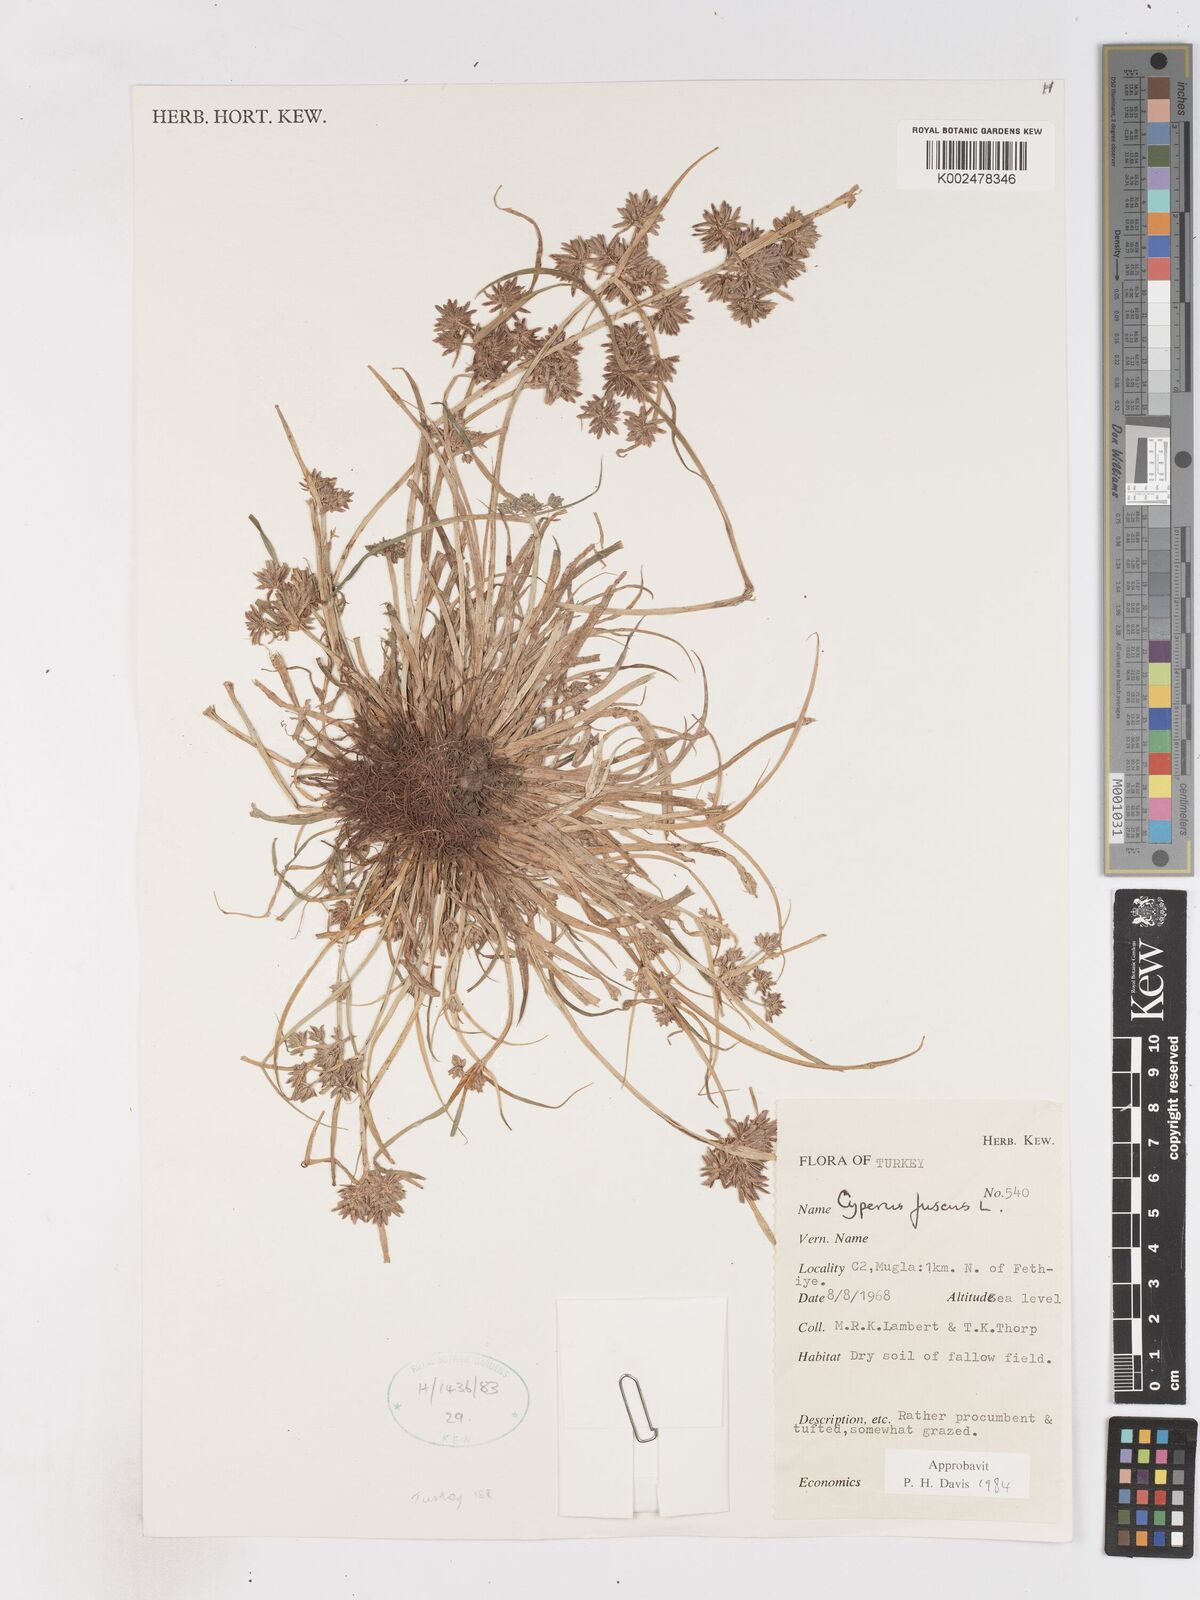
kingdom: Plantae
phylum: Tracheophyta
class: Liliopsida
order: Poales
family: Cyperaceae
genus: Cyperus
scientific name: Cyperus fuscus
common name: Brown galingale
